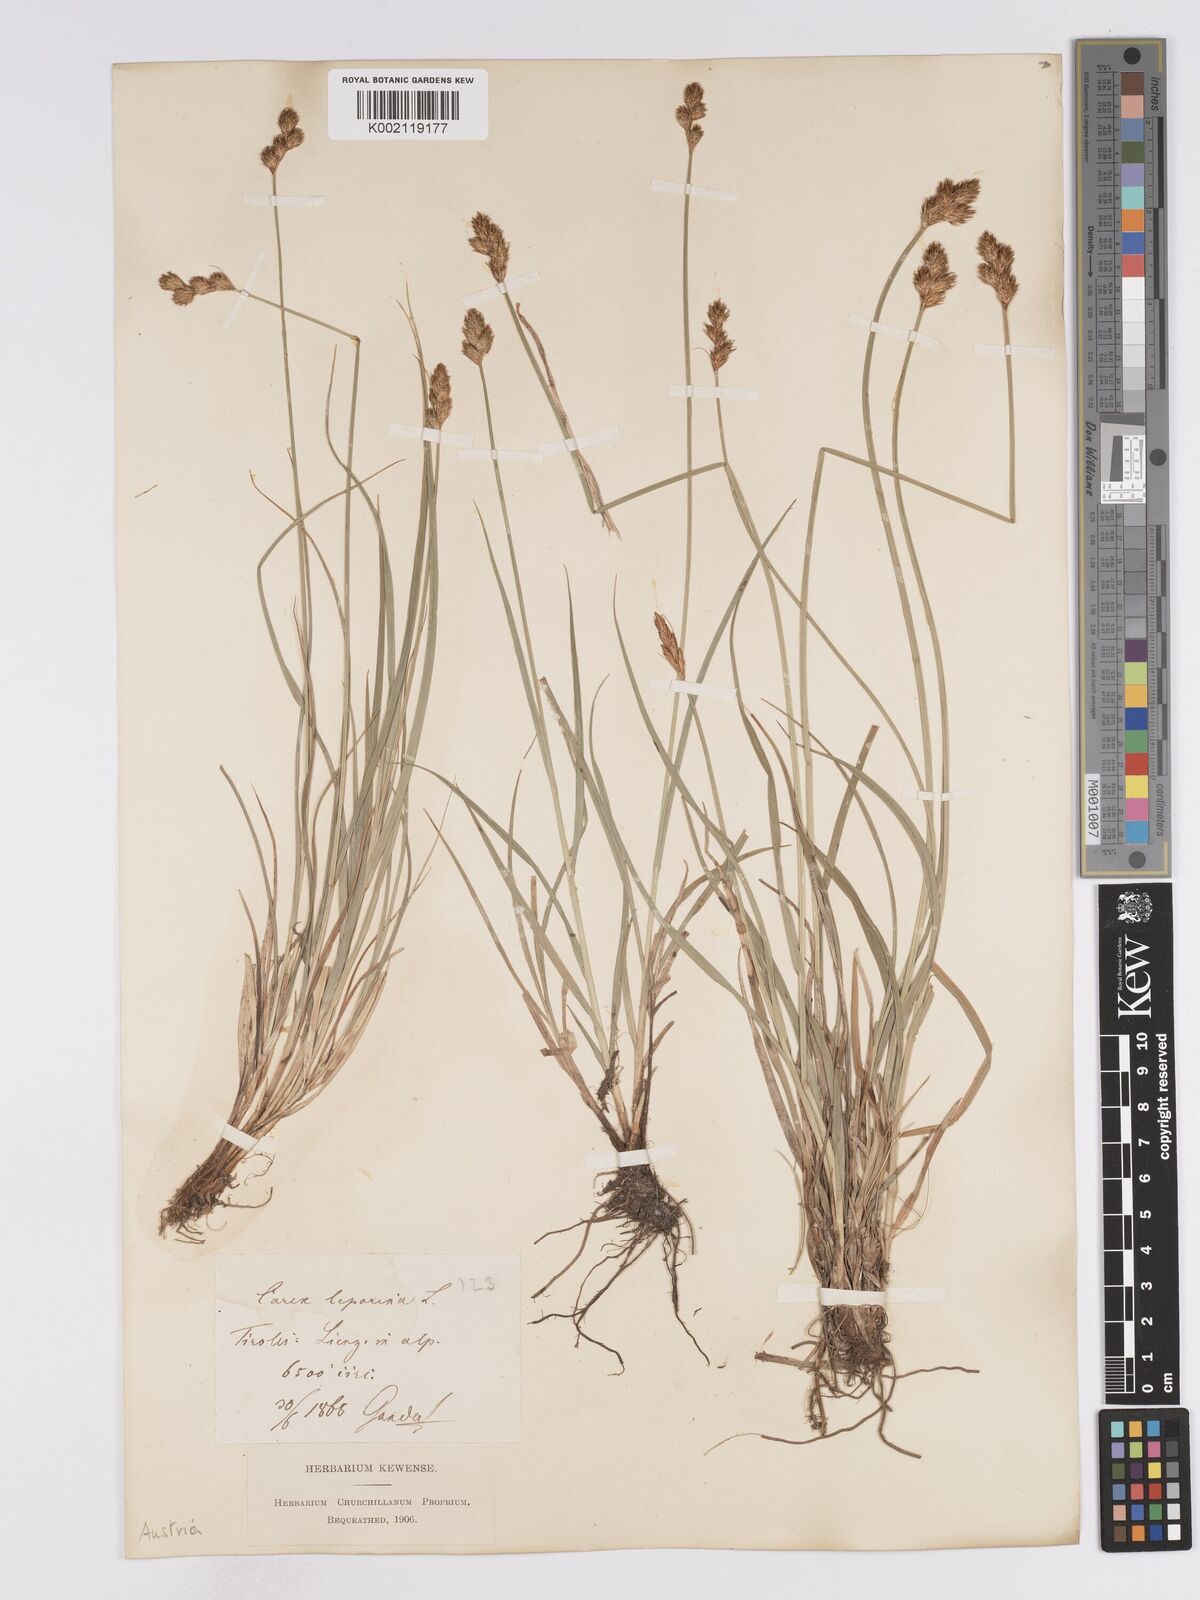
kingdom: Plantae
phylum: Tracheophyta
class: Liliopsida
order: Poales
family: Cyperaceae
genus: Carex
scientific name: Carex leporina
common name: Oval sedge
